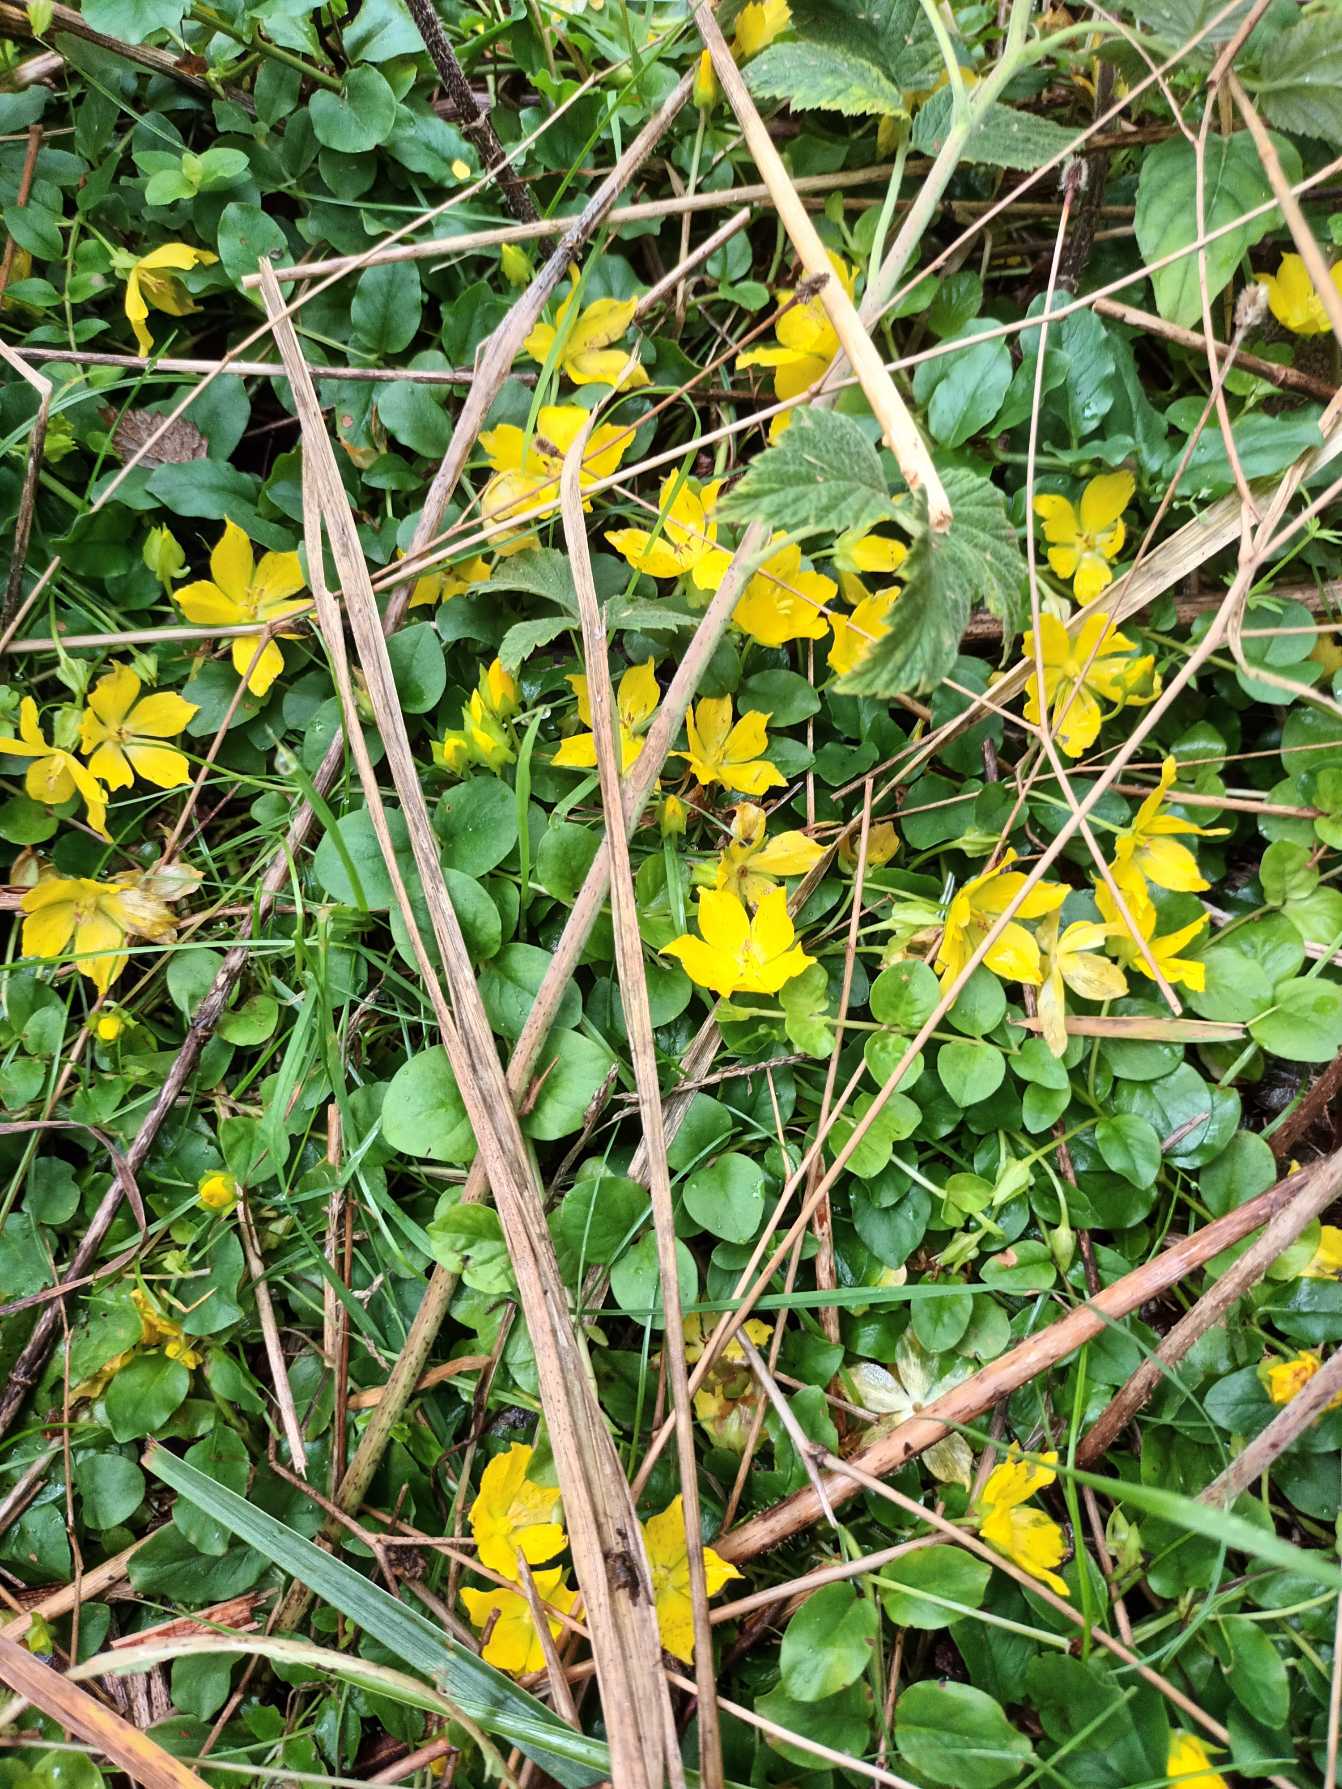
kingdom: Plantae
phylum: Tracheophyta
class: Magnoliopsida
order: Ericales
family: Primulaceae
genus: Lysimachia
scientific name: Lysimachia nummularia
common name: Pengebladet fredløs
